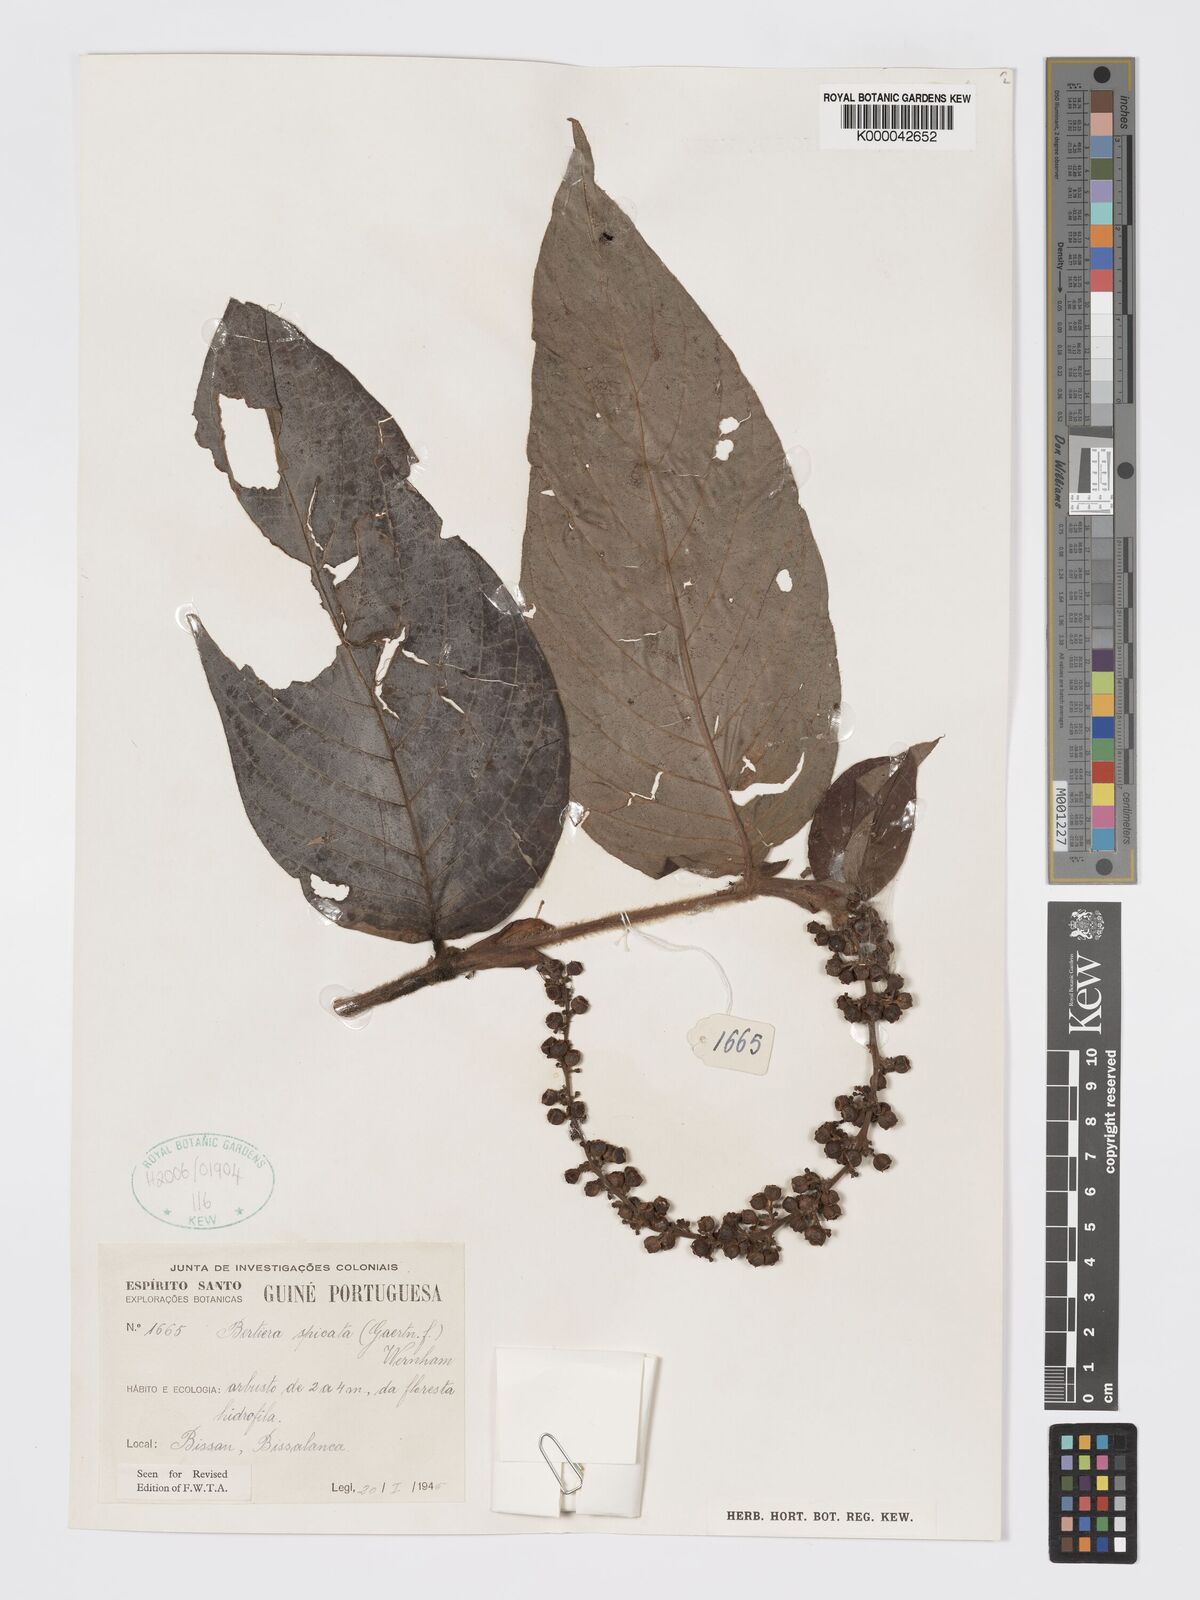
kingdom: Plantae
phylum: Tracheophyta
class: Magnoliopsida
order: Gentianales
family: Rubiaceae
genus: Bertiera
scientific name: Bertiera
